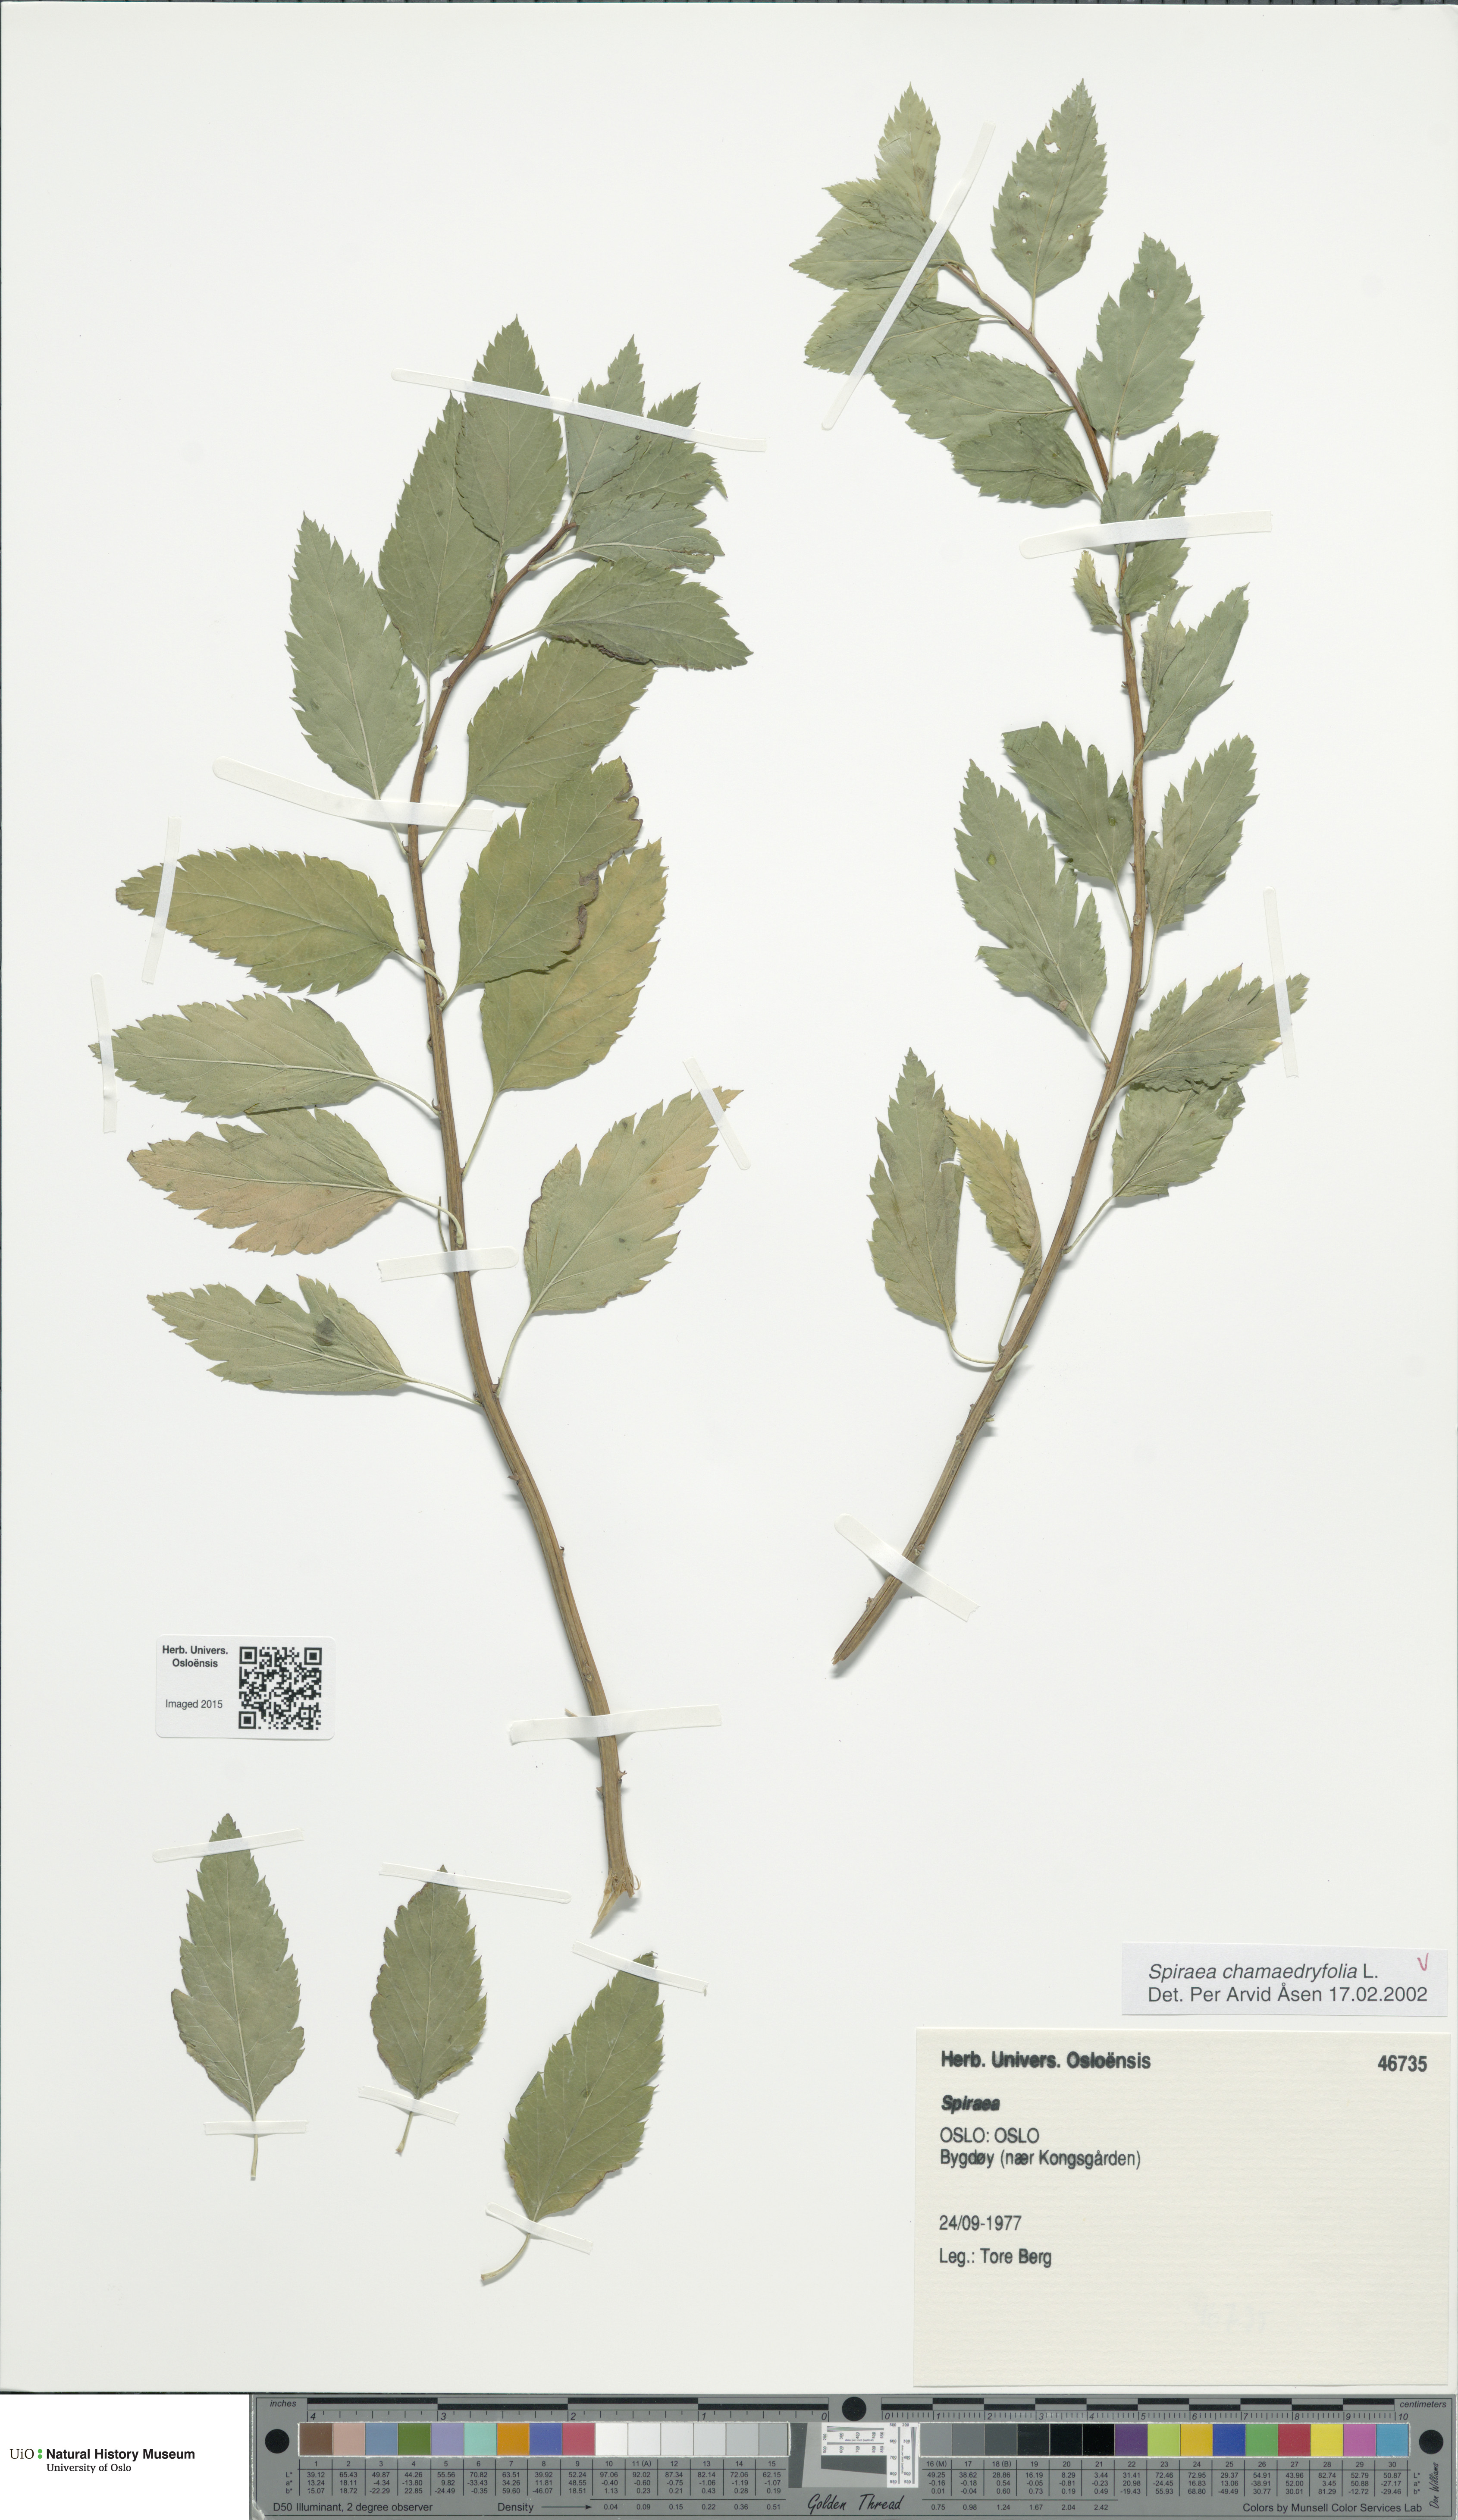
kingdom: Plantae
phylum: Tracheophyta
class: Magnoliopsida
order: Rosales
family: Rosaceae
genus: Spiraea
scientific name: Spiraea chamaedryfolia
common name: Elm-leaved spiraea
